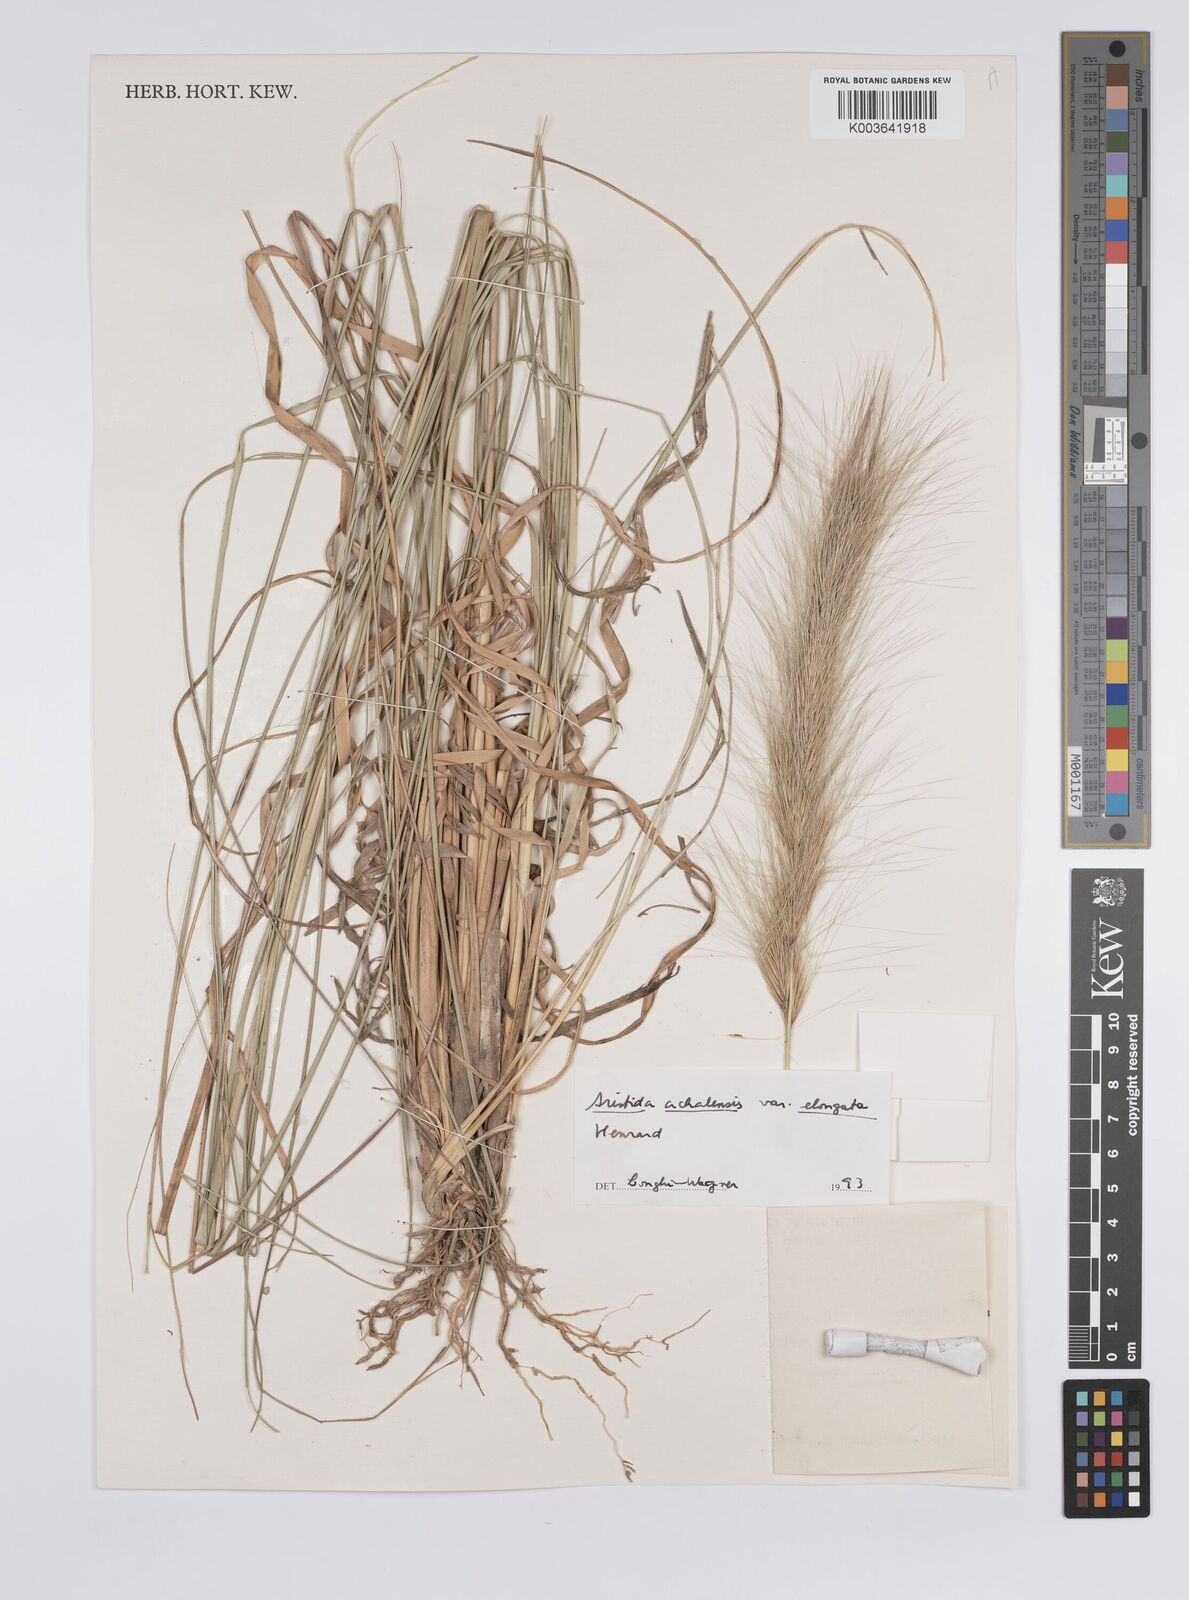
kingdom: Plantae
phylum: Tracheophyta
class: Liliopsida
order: Poales
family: Poaceae
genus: Aristida
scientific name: Aristida achalensis
